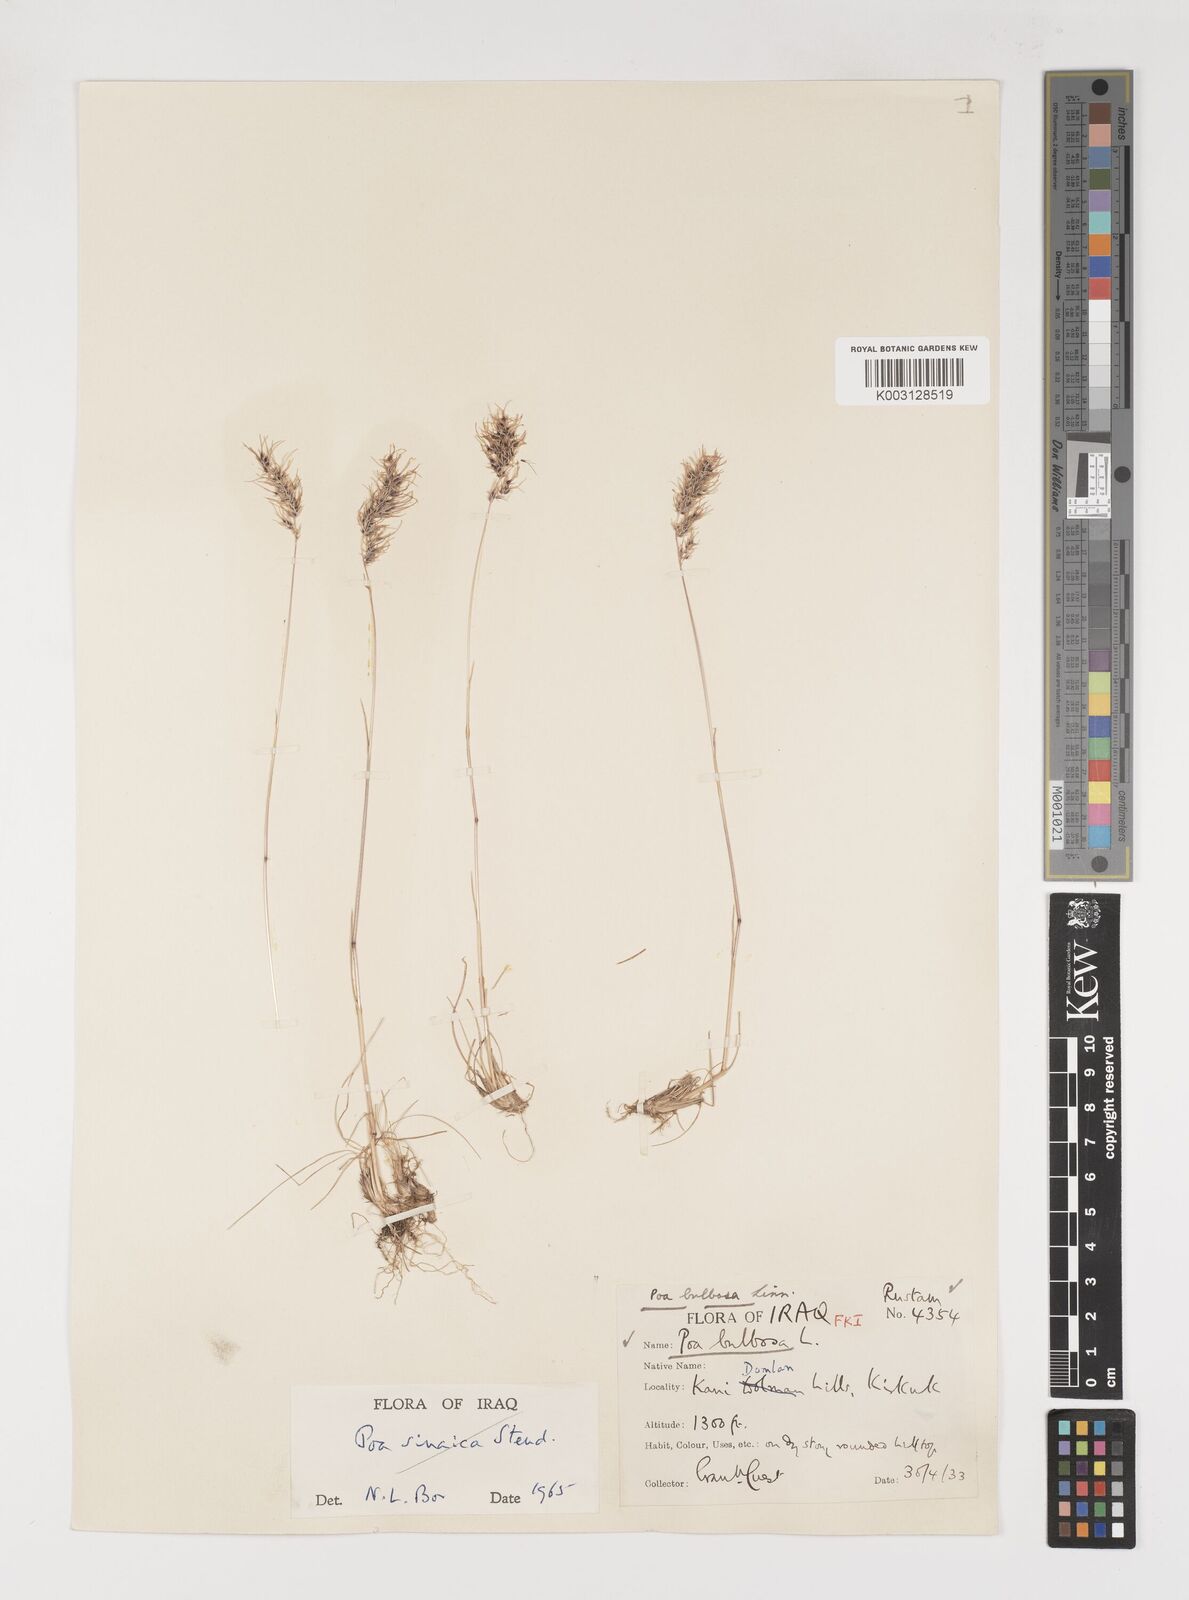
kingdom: Plantae
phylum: Tracheophyta
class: Liliopsida
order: Poales
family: Poaceae
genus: Poa
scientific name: Poa sinaica
